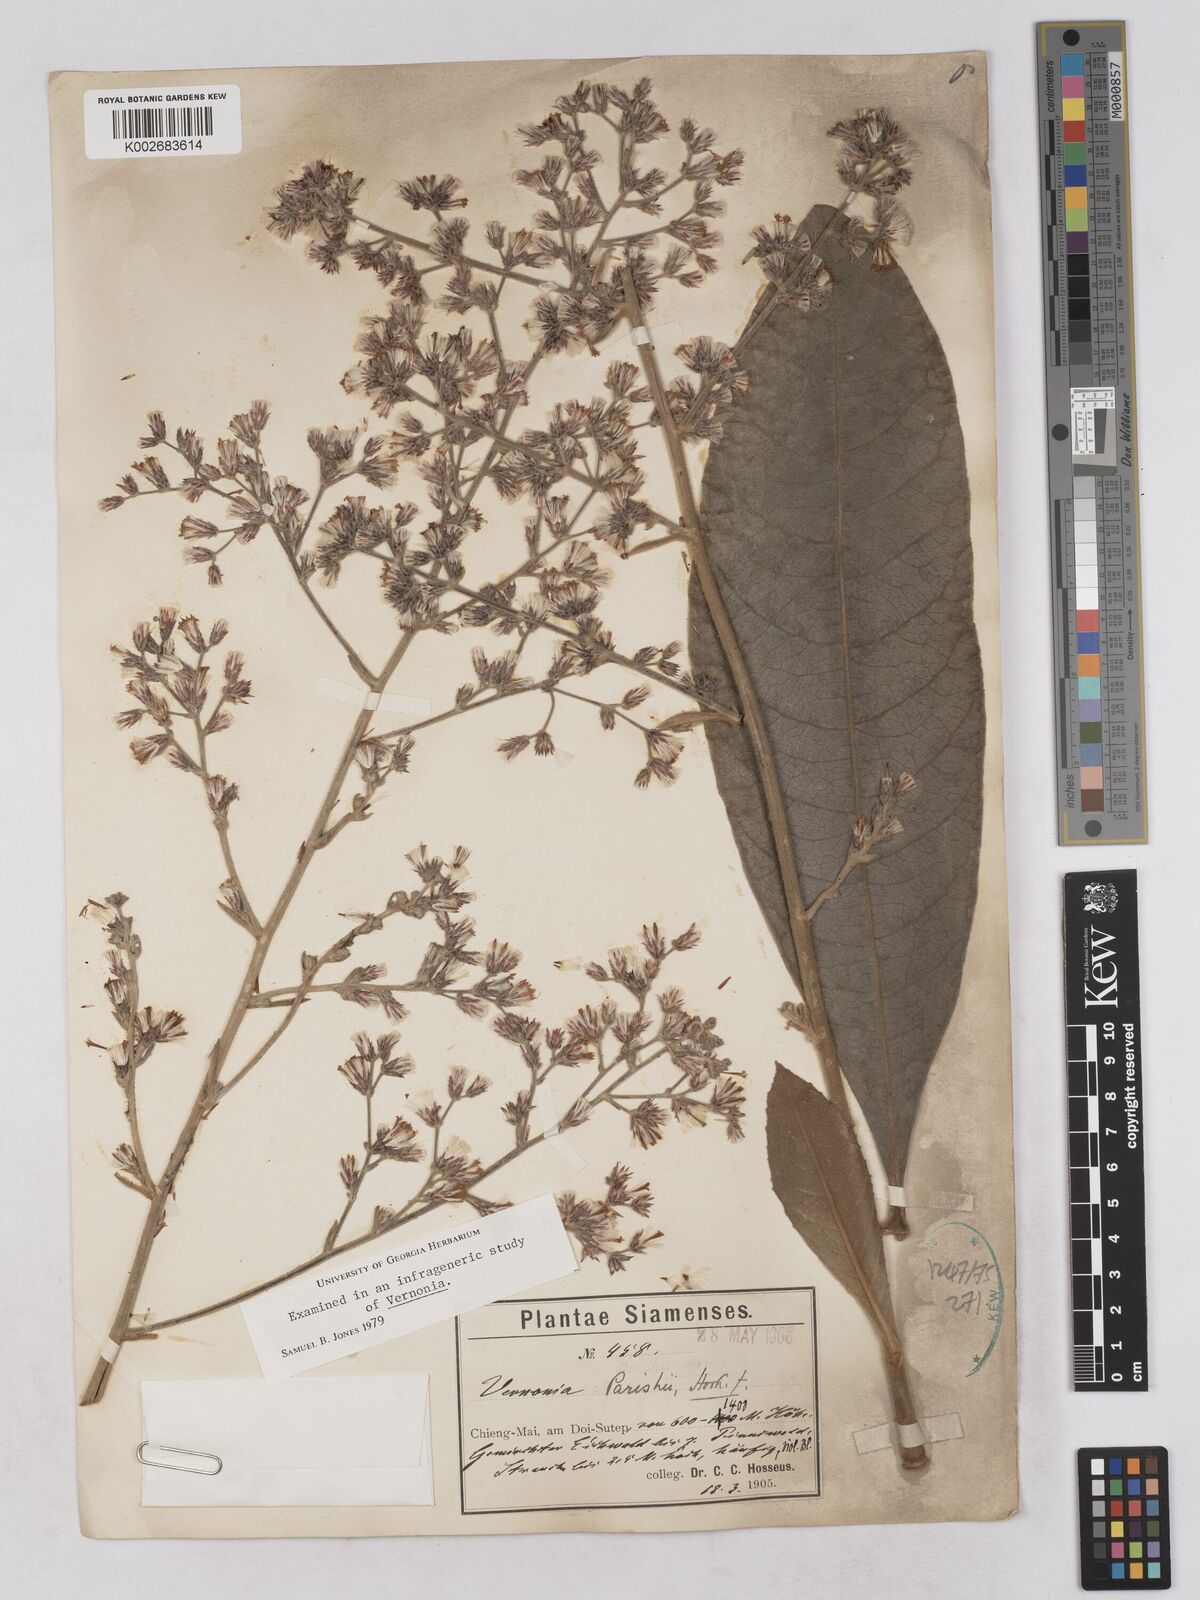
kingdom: Plantae
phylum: Tracheophyta
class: Magnoliopsida
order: Asterales
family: Asteraceae
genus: Monosis
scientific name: Monosis parishii
